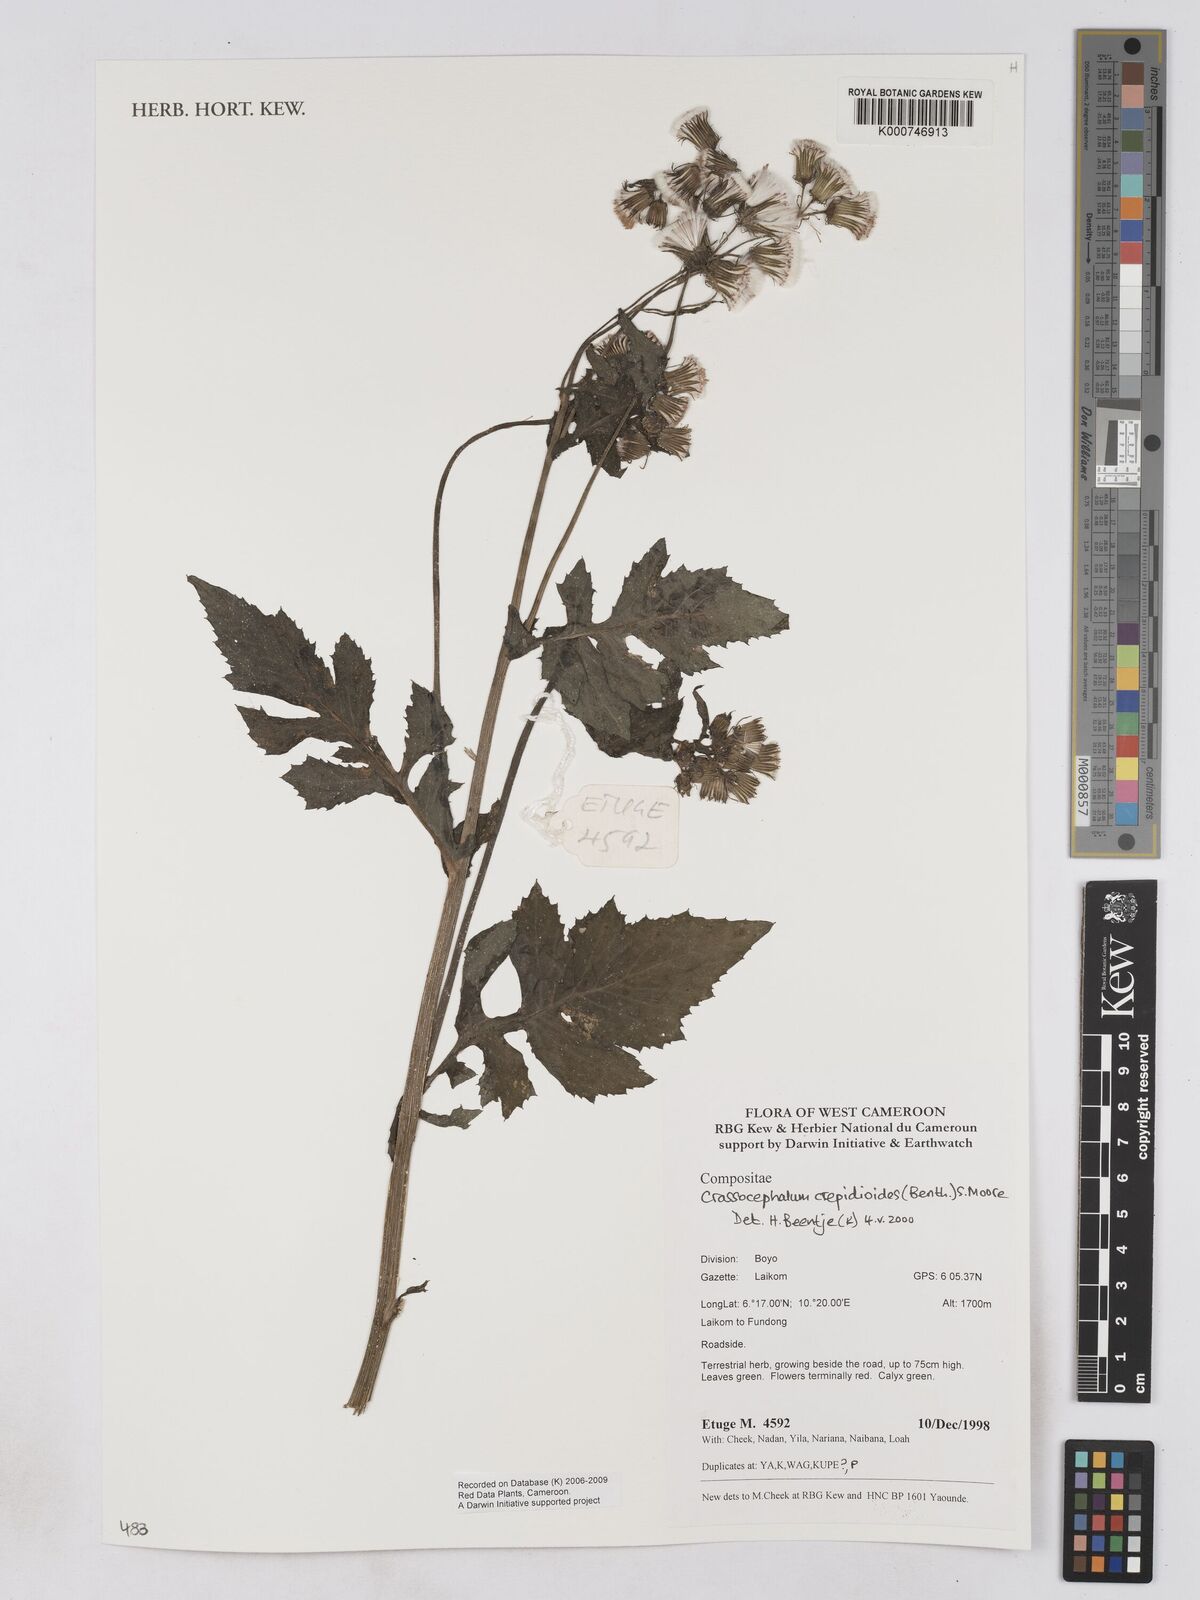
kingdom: Plantae
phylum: Tracheophyta
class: Magnoliopsida
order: Asterales
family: Asteraceae
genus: Crassocephalum
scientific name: Crassocephalum crepidioides
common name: Redflower ragleaf
